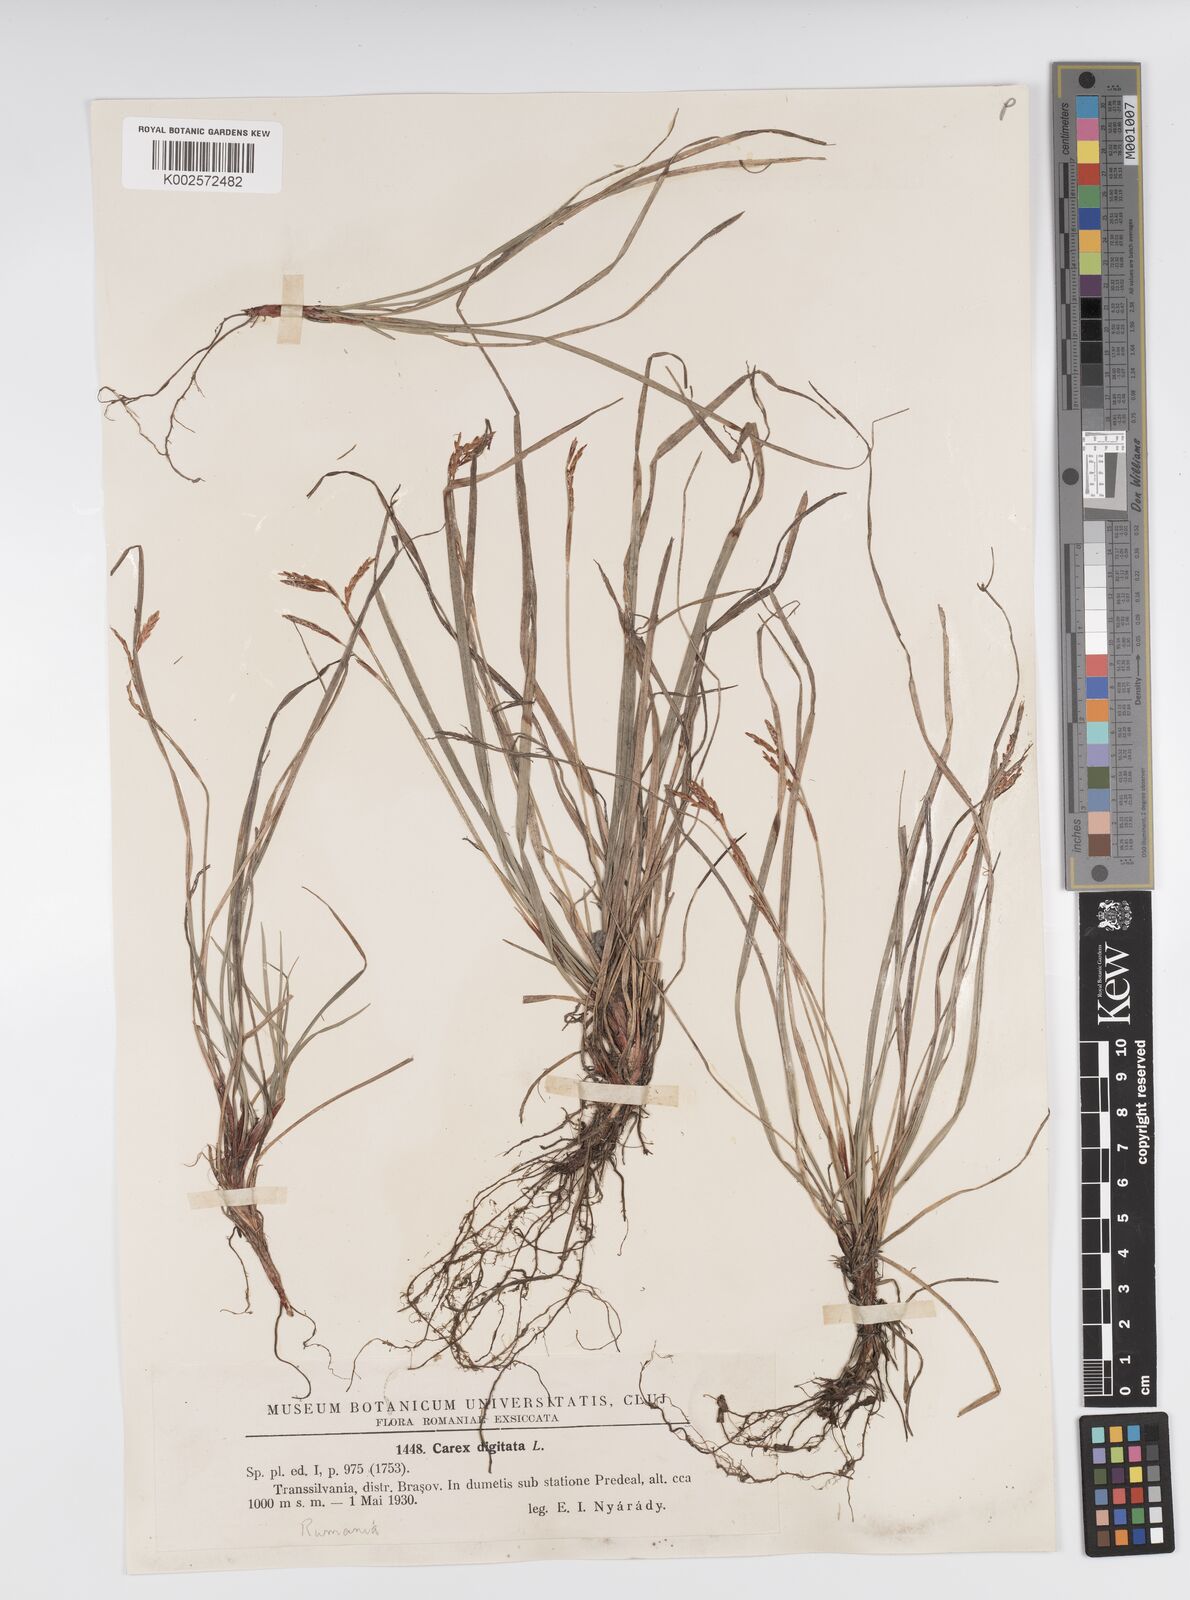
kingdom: Plantae
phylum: Tracheophyta
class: Liliopsida
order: Poales
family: Cyperaceae
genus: Carex
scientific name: Carex digitata
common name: Fingered sedge
